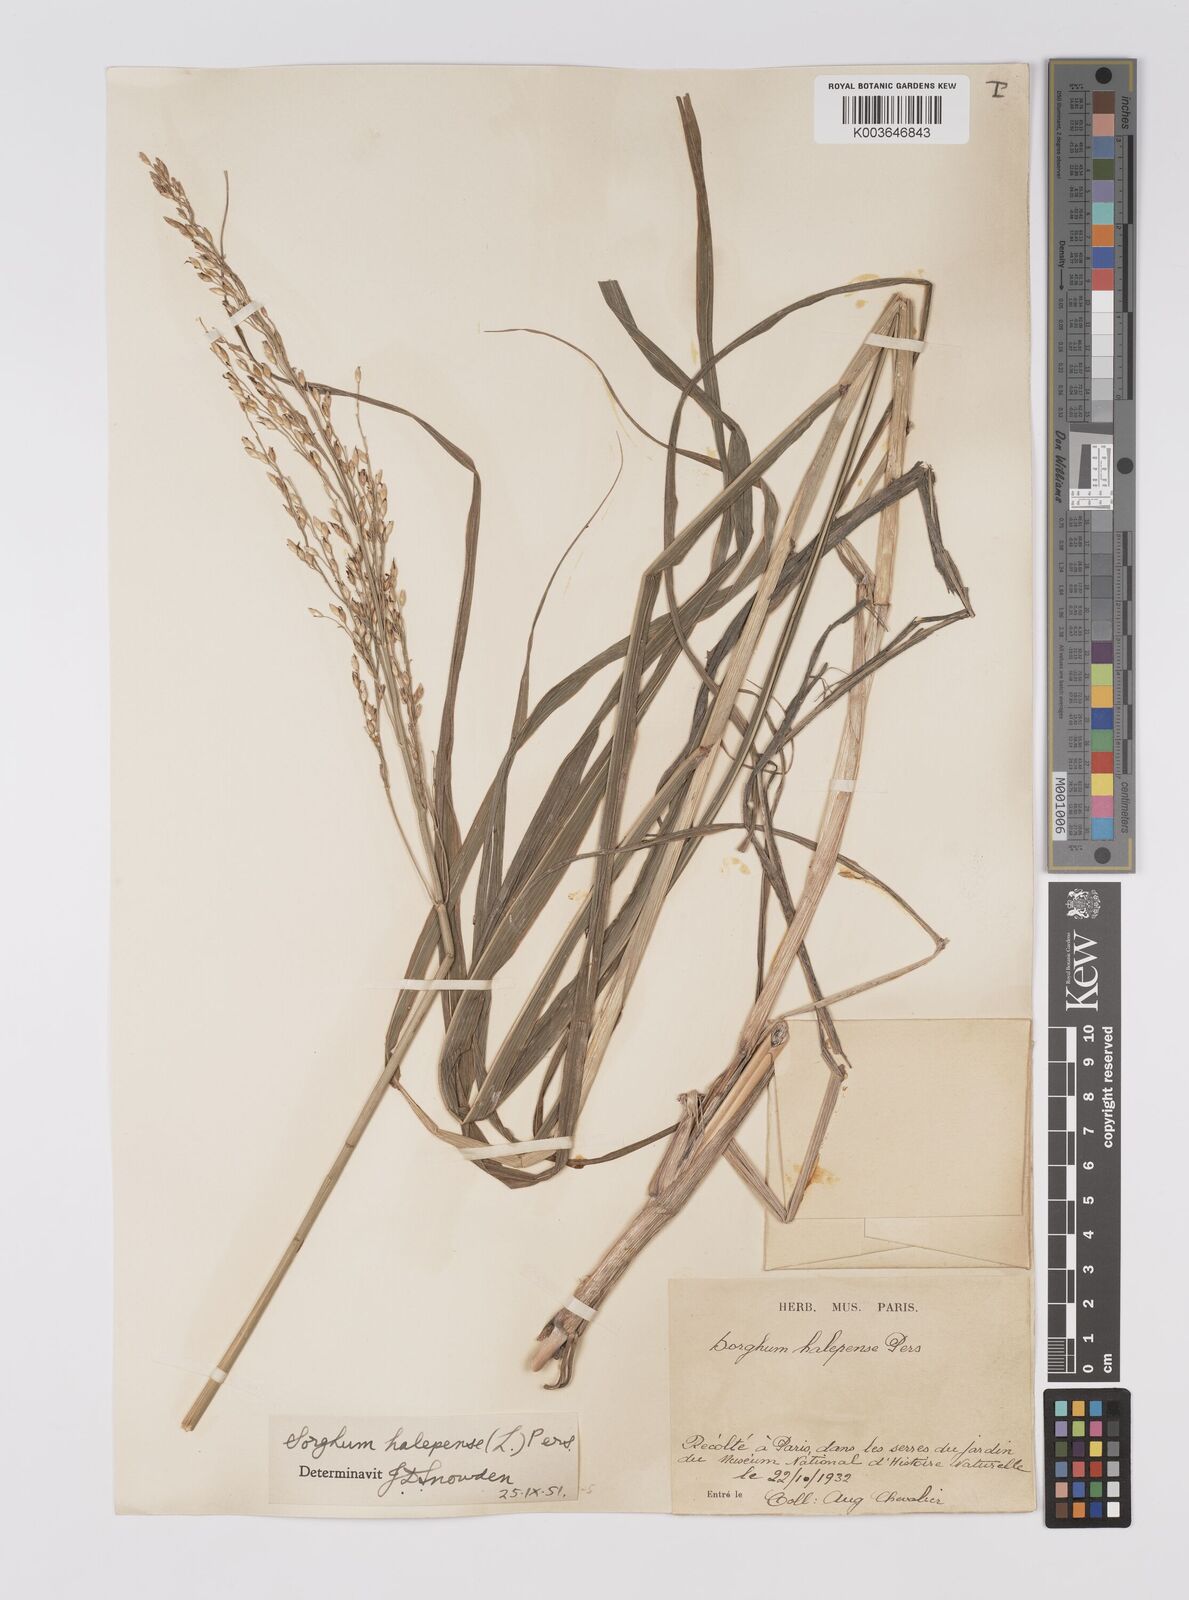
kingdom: Plantae
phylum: Tracheophyta
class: Liliopsida
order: Poales
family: Poaceae
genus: Sorghum
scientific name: Sorghum halepense
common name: Johnson-grass
